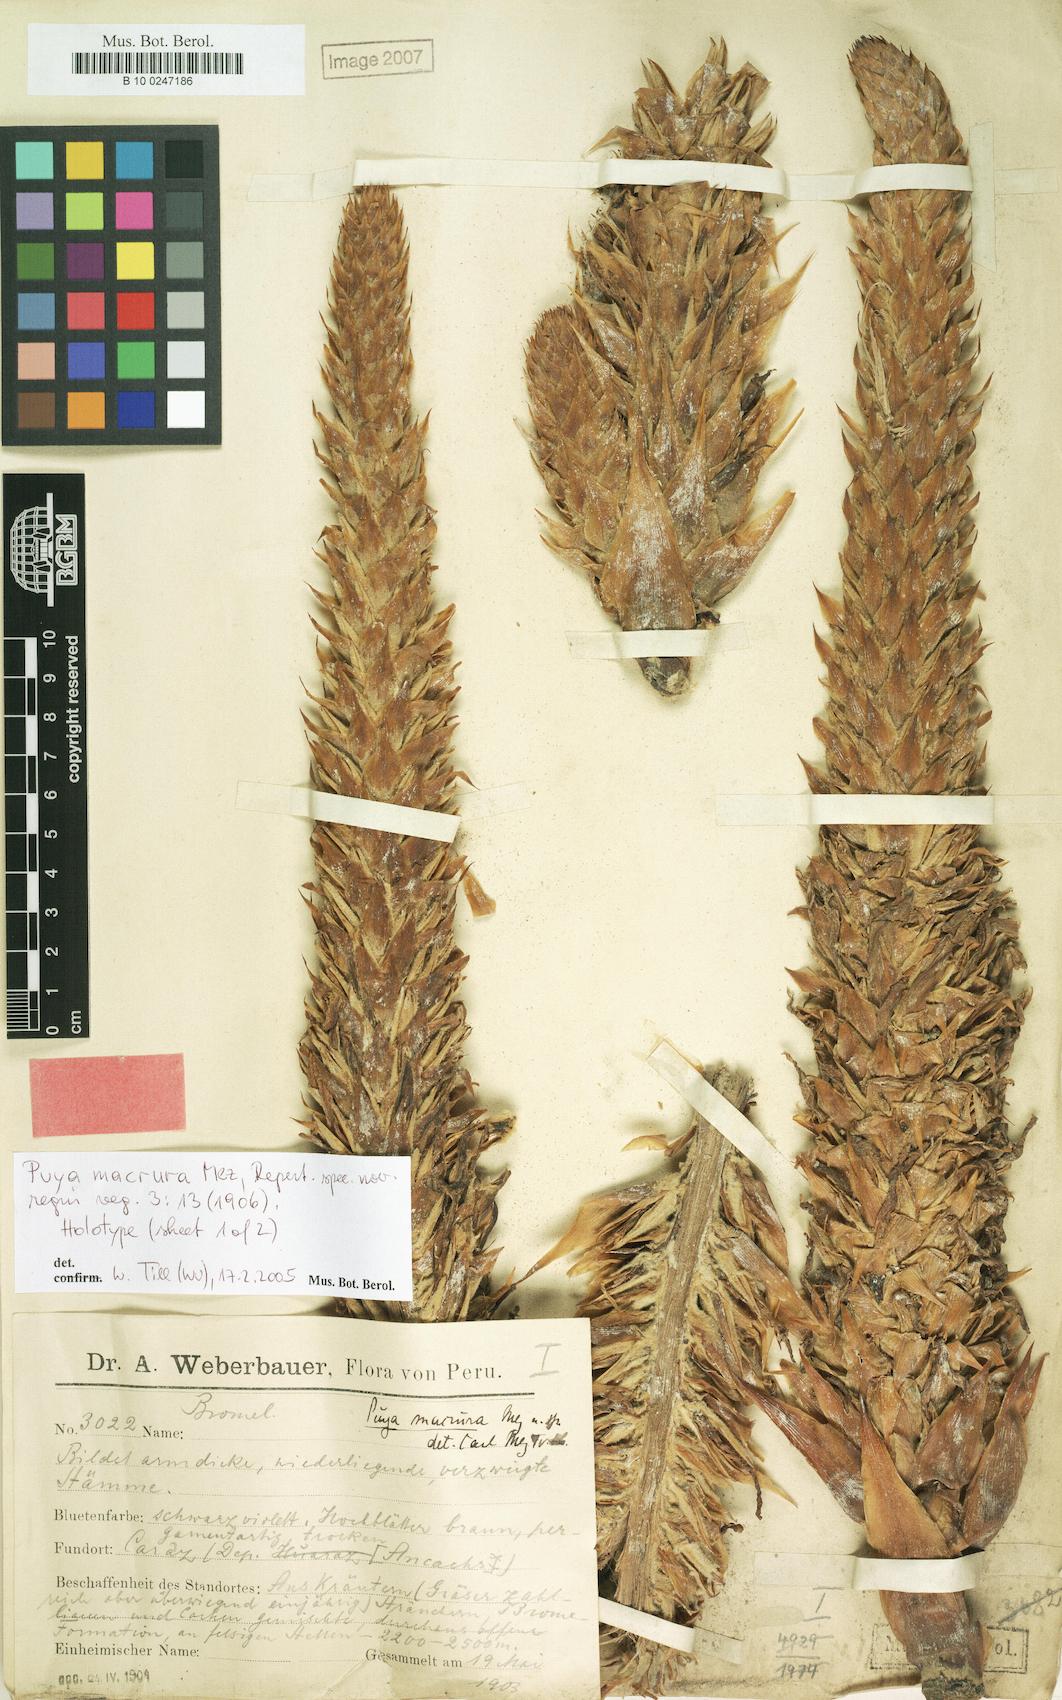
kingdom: Plantae
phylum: Tracheophyta
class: Liliopsida
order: Poales
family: Bromeliaceae
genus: Puya
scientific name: Puya macrura
